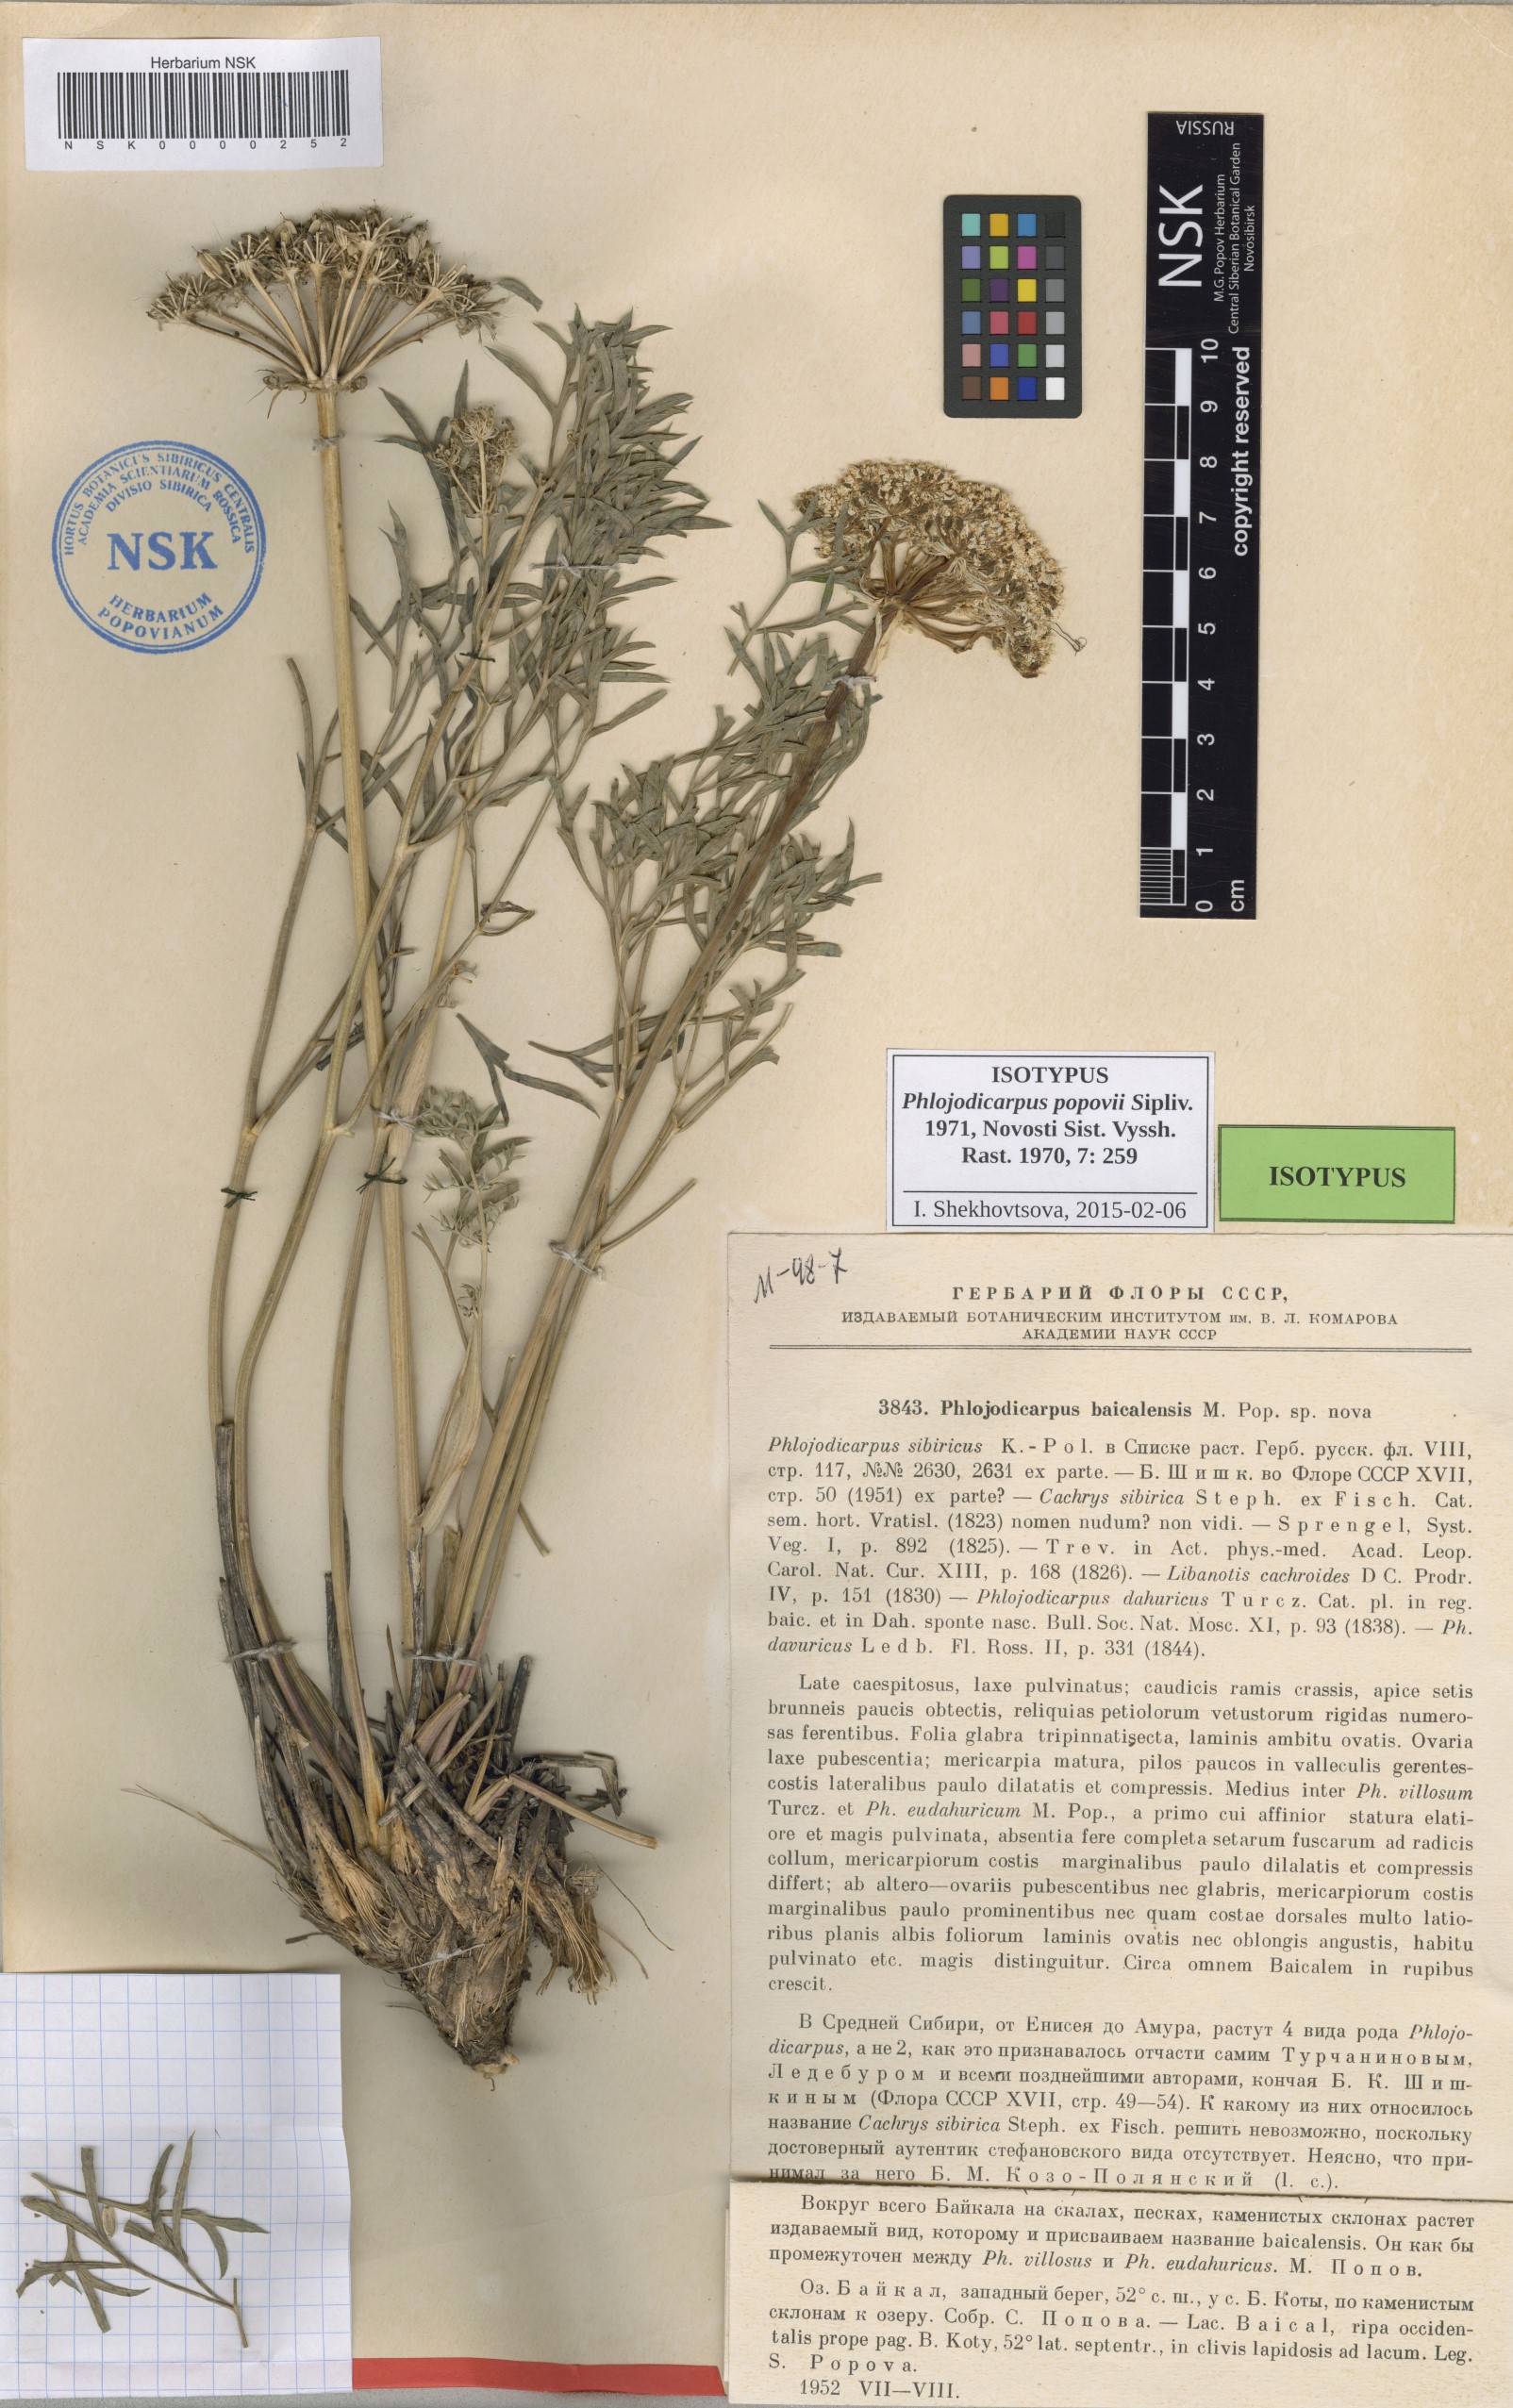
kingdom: Plantae
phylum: Tracheophyta
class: Magnoliopsida
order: Apiales
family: Apiaceae
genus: Phlojodicarpus
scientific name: Phlojodicarpus sibiricus
